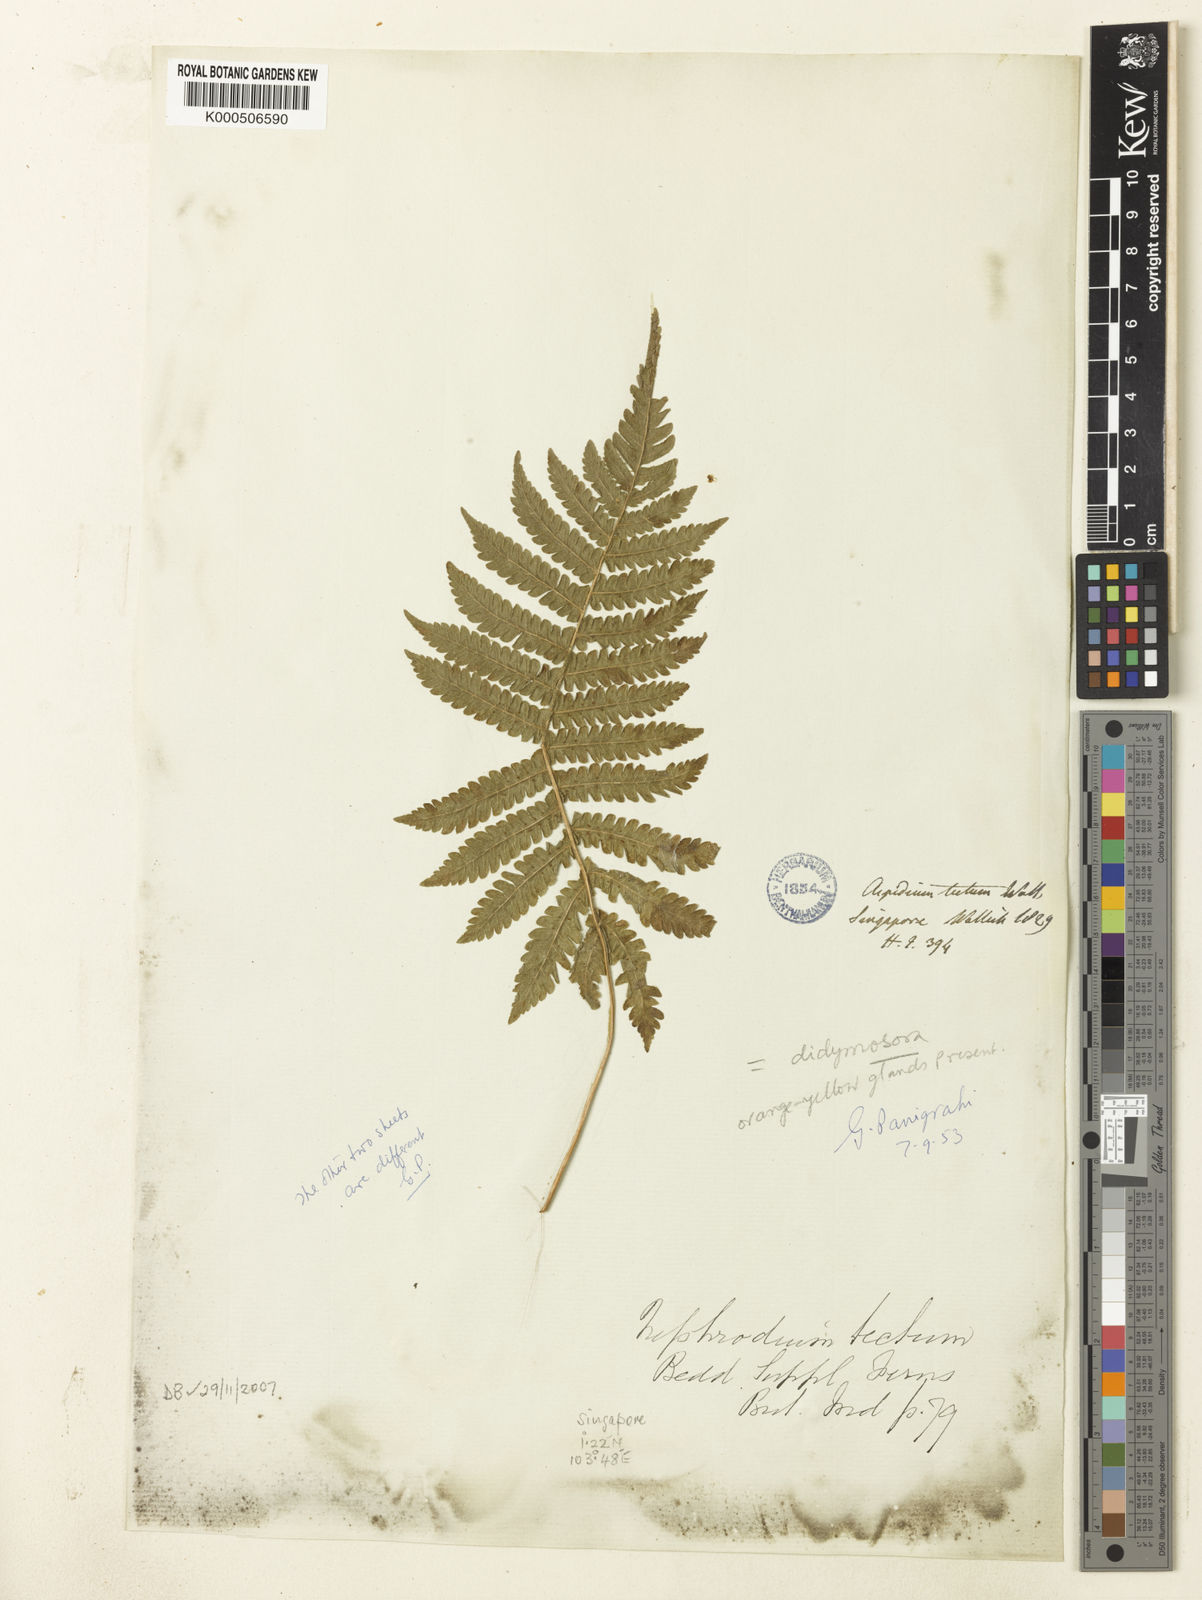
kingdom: Plantae
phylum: Tracheophyta
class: Polypodiopsida
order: Polypodiales
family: Thelypteridaceae
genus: Christella
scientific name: Christella parasitica
